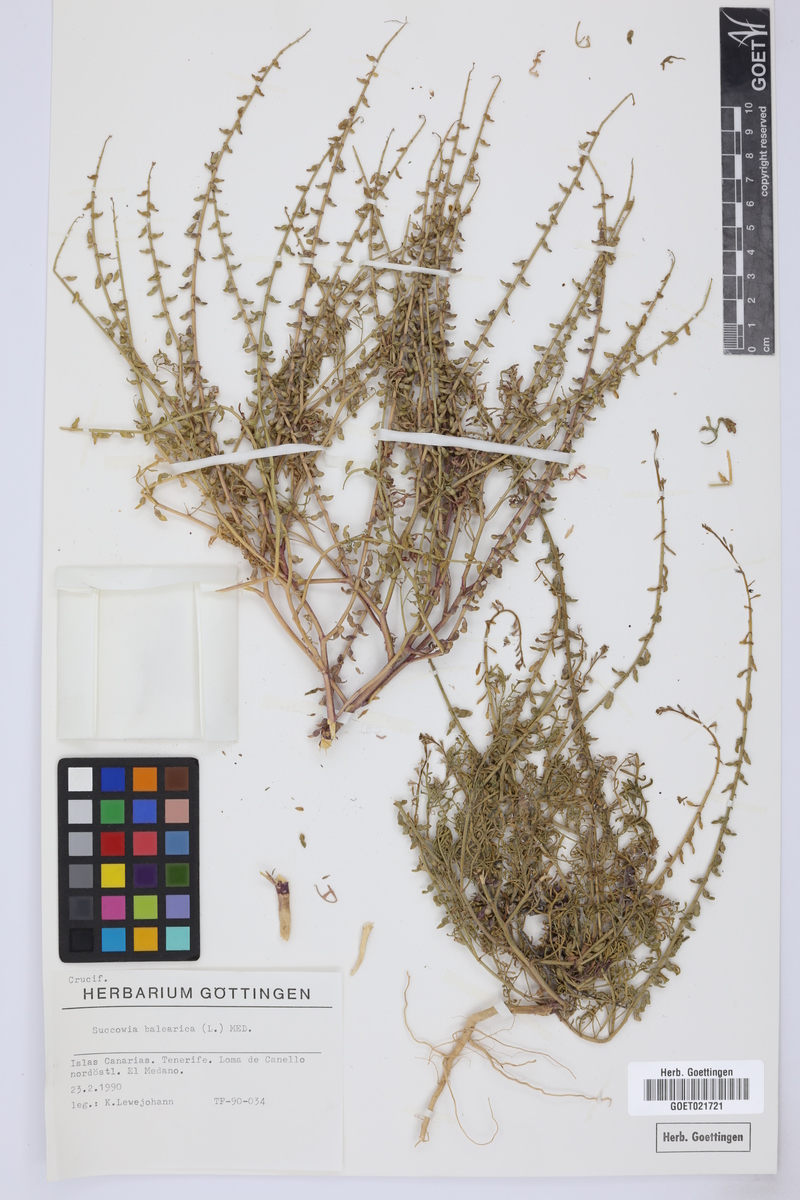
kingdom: Plantae
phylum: Tracheophyta
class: Magnoliopsida
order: Brassicales
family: Brassicaceae
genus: Succowia
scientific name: Succowia balearica
